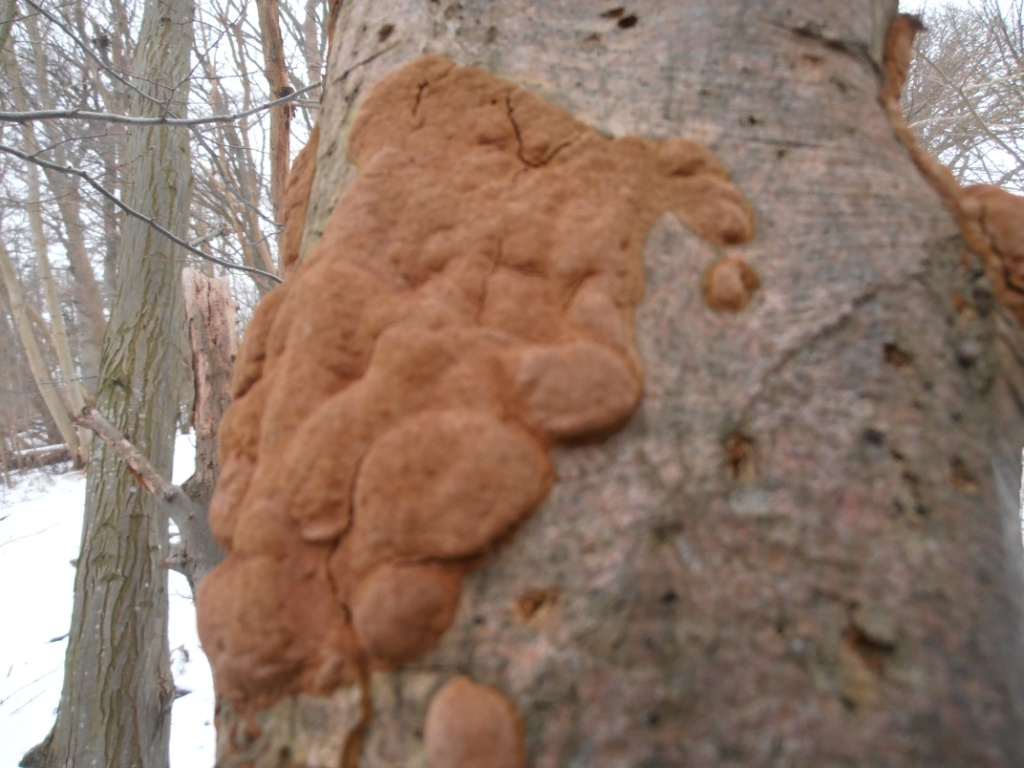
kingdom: Fungi
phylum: Basidiomycota
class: Agaricomycetes
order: Hymenochaetales
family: Hymenochaetaceae
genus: Fuscoporia
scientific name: Fuscoporia ferrea
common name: skorpe-ildporesvamp
